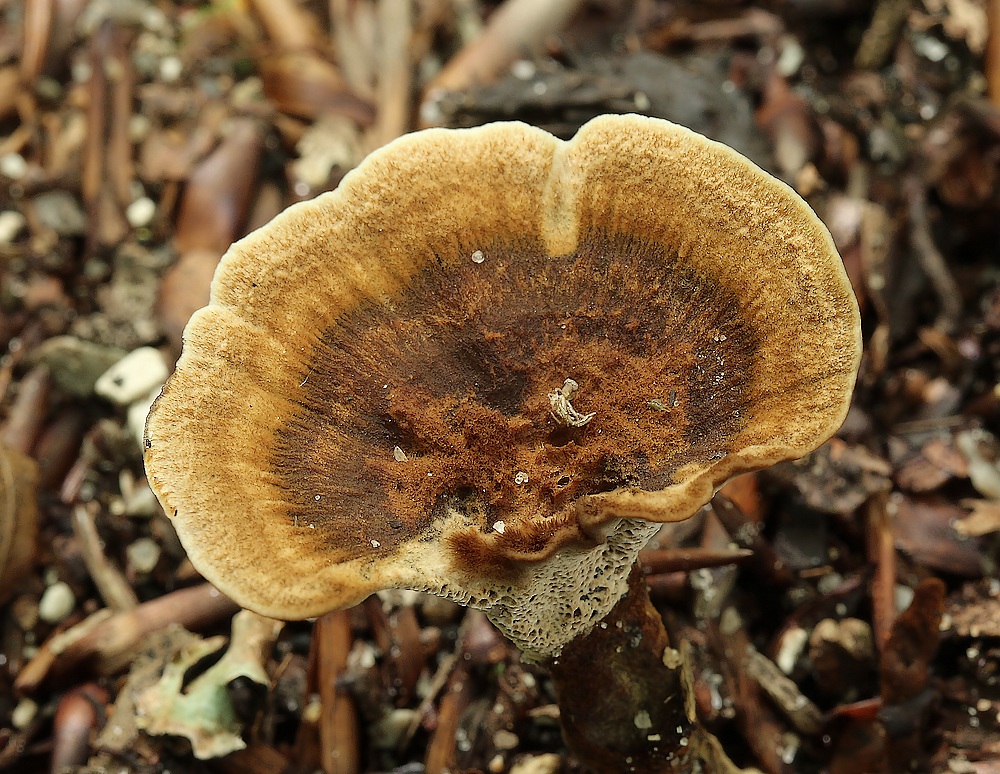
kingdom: Fungi
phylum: Basidiomycota
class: Agaricomycetes
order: Hymenochaetales
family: Hymenochaetaceae
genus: Coltricia
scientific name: Coltricia
